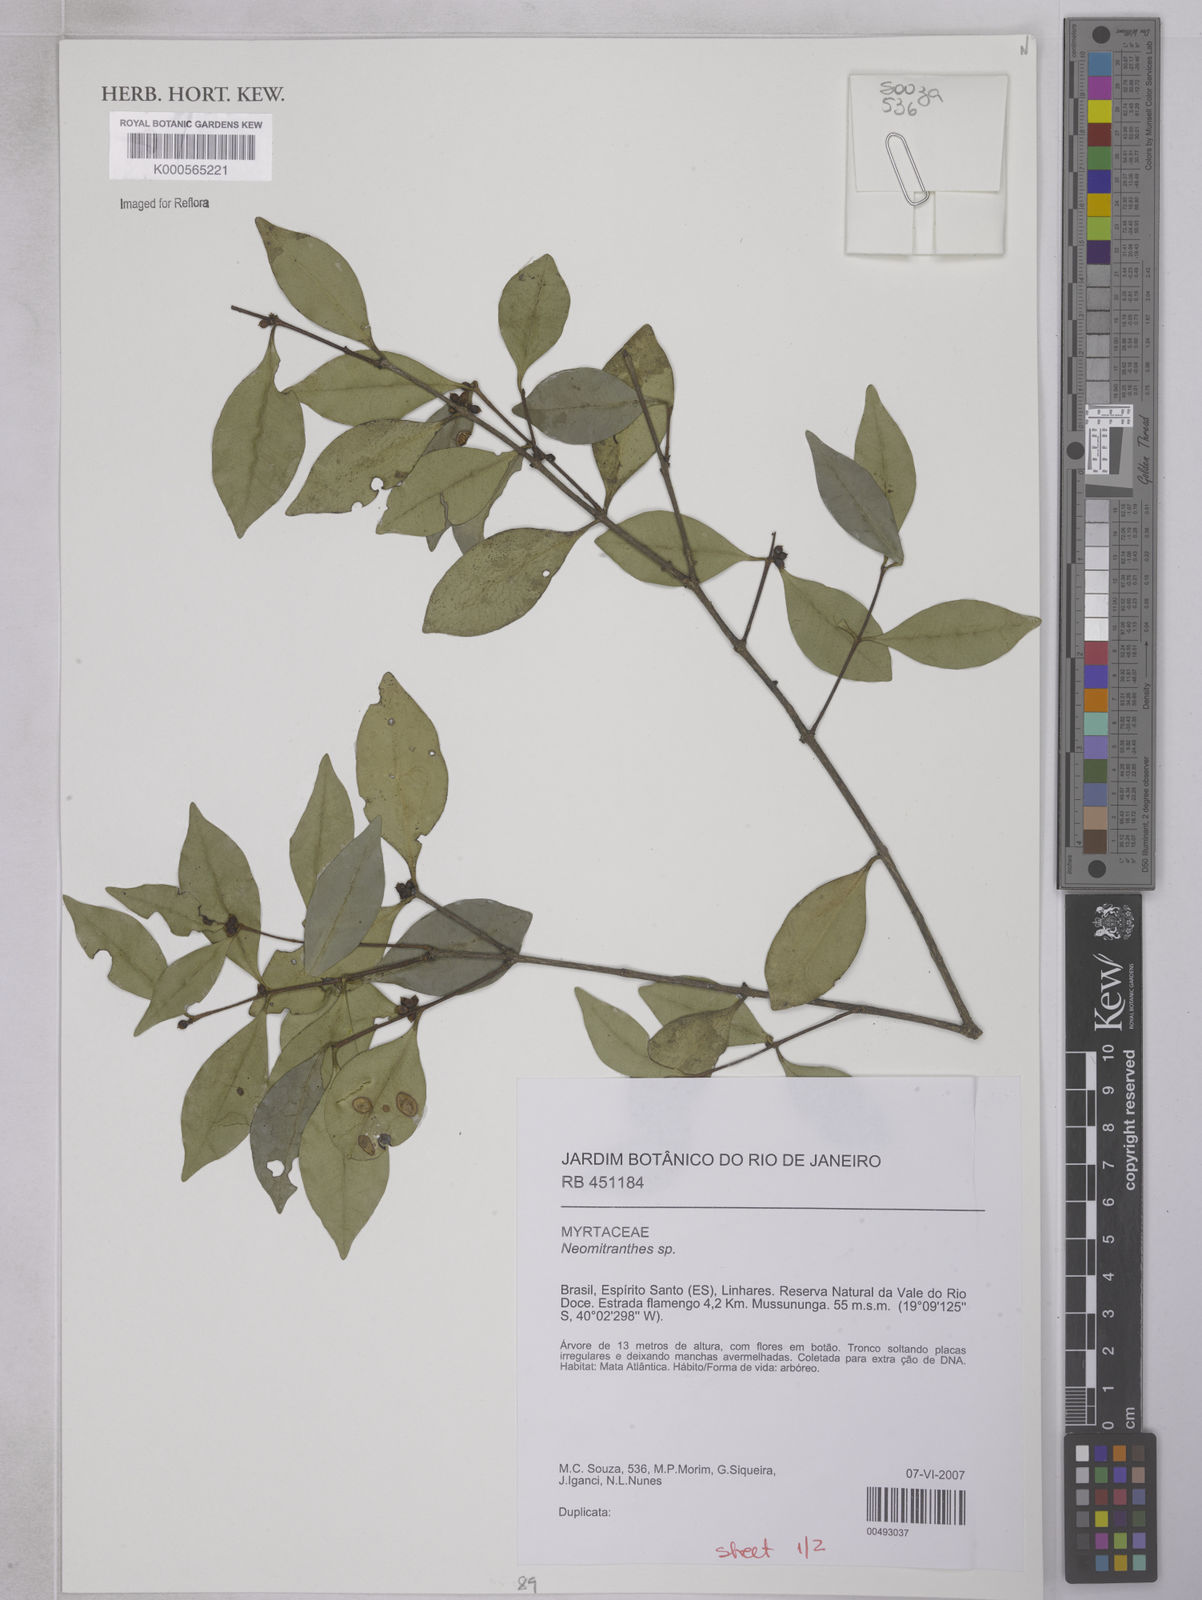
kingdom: Plantae
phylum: Tracheophyta
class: Magnoliopsida
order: Myrtales
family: Myrtaceae
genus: Neomitranthes
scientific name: Neomitranthes
